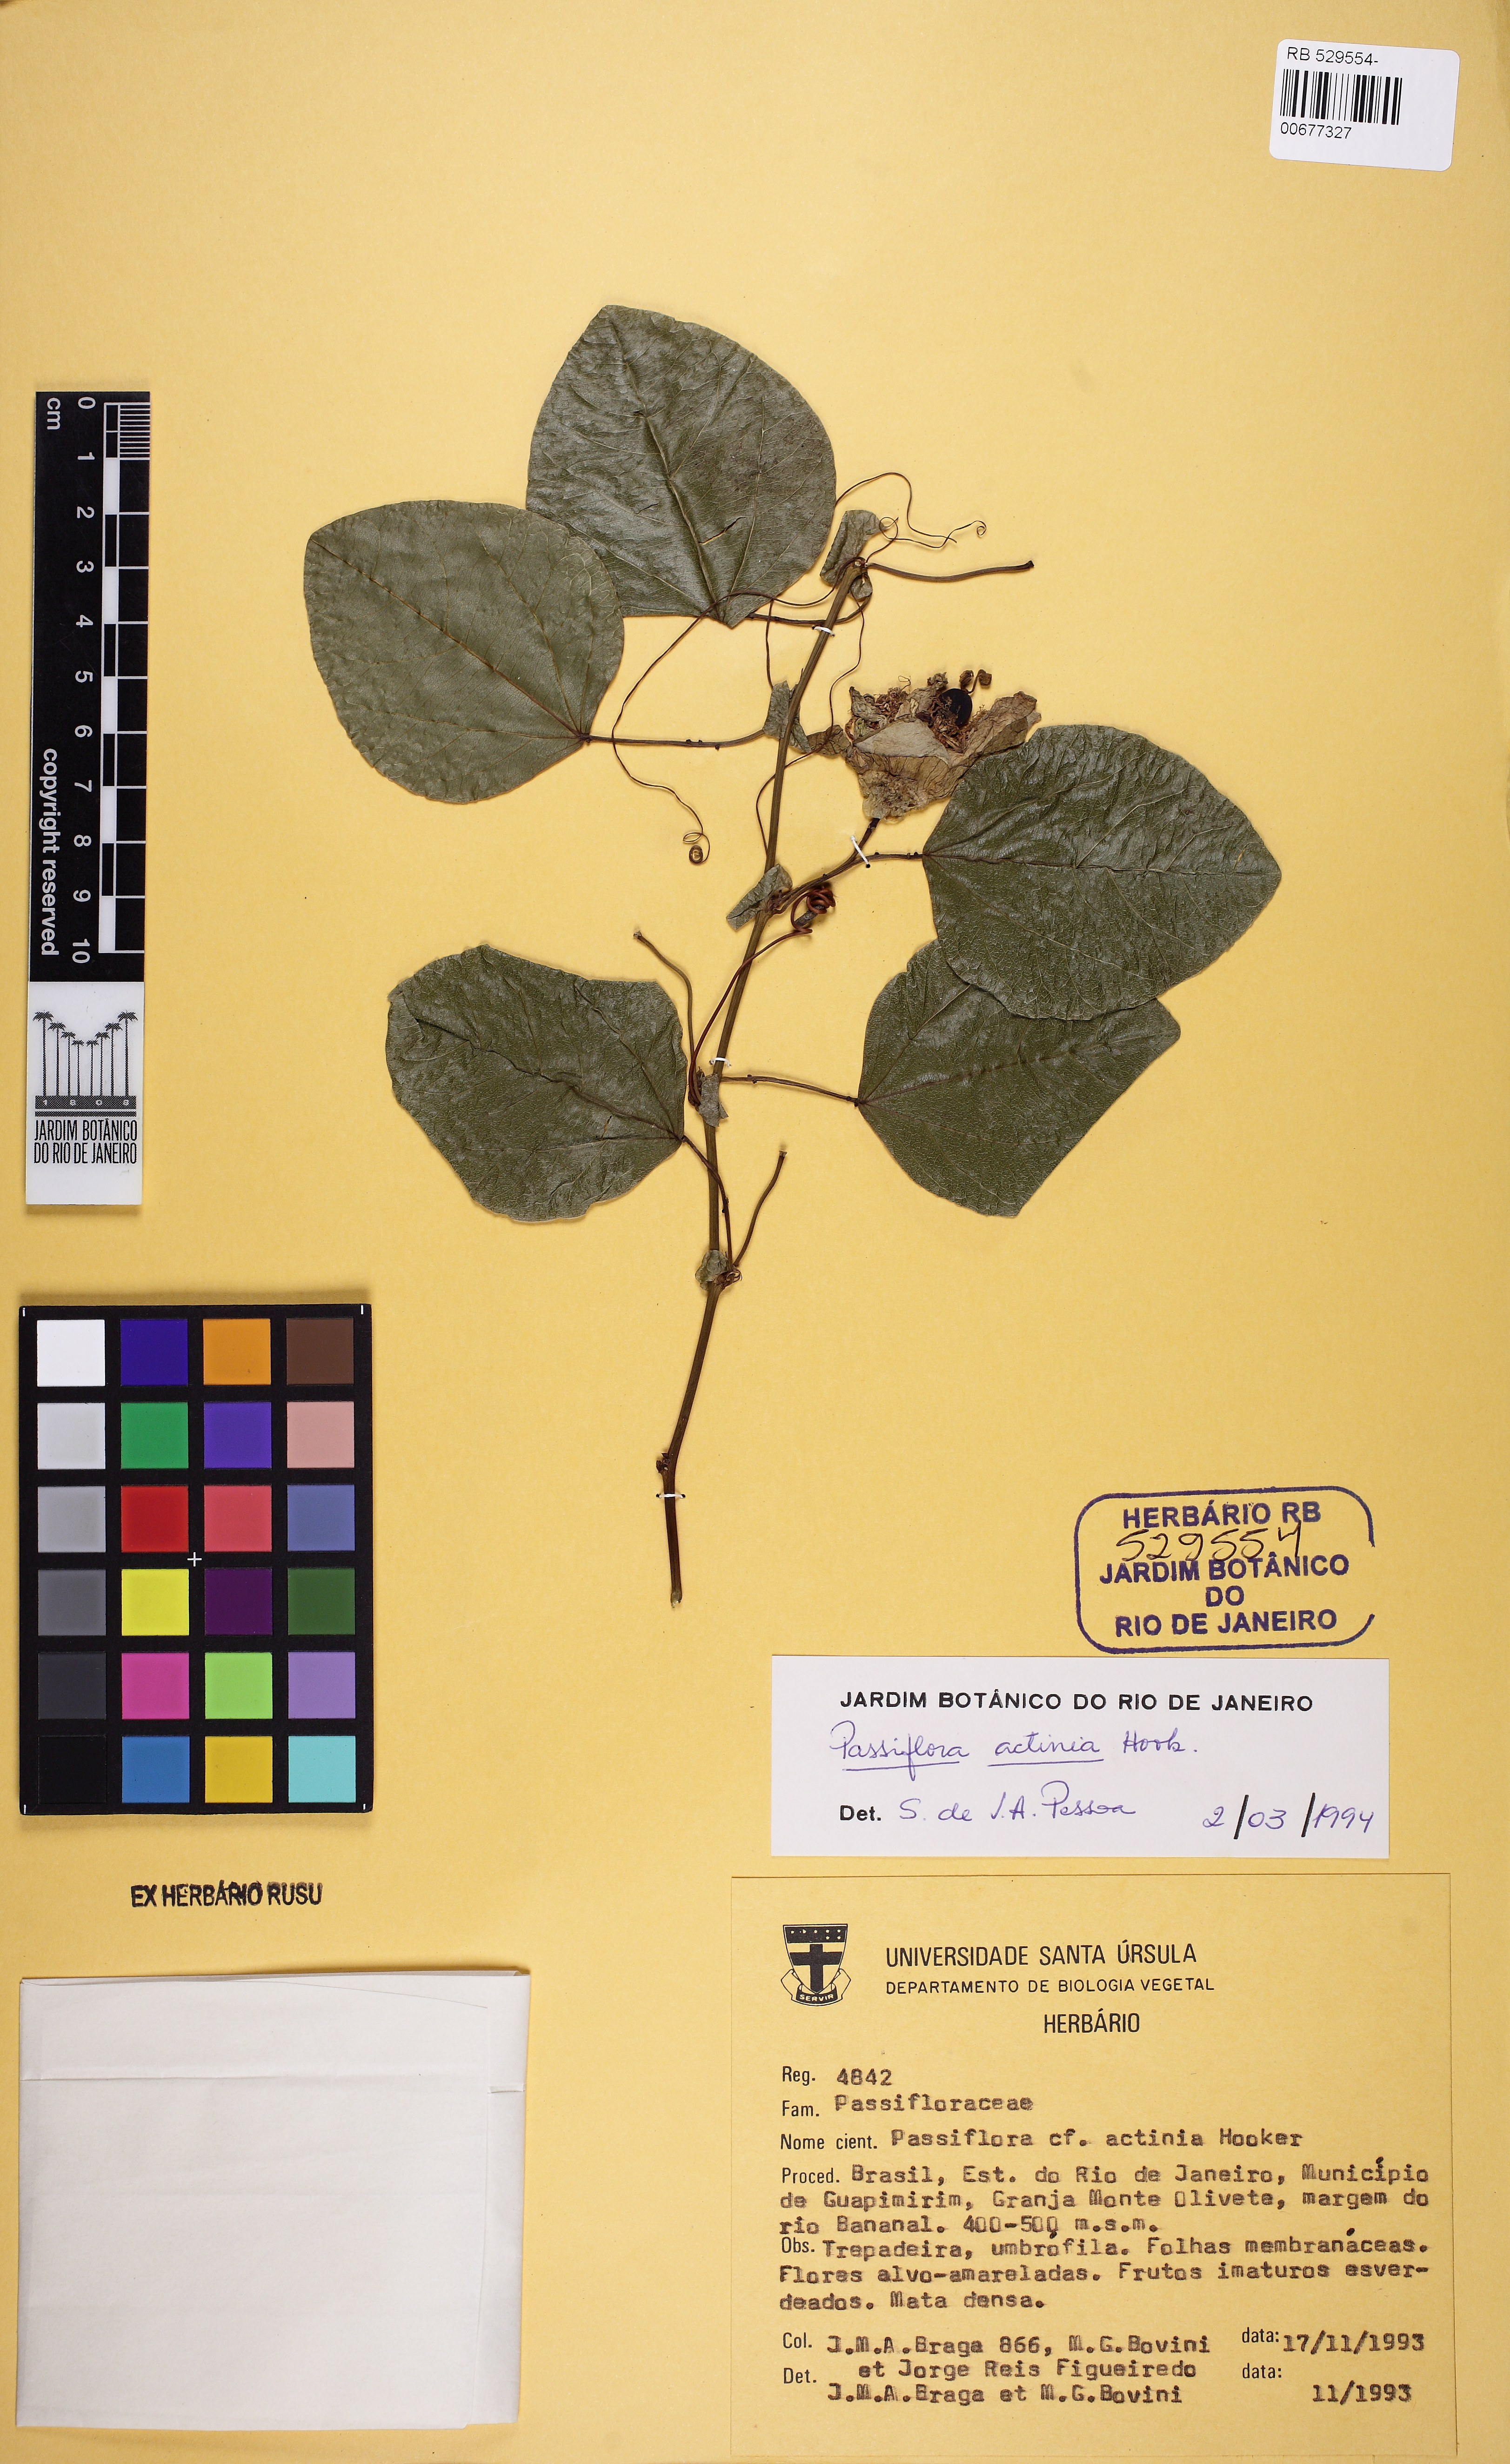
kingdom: Plantae
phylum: Tracheophyta
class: Magnoliopsida
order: Malpighiales
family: Passifloraceae
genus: Passiflora
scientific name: Passiflora actinia
